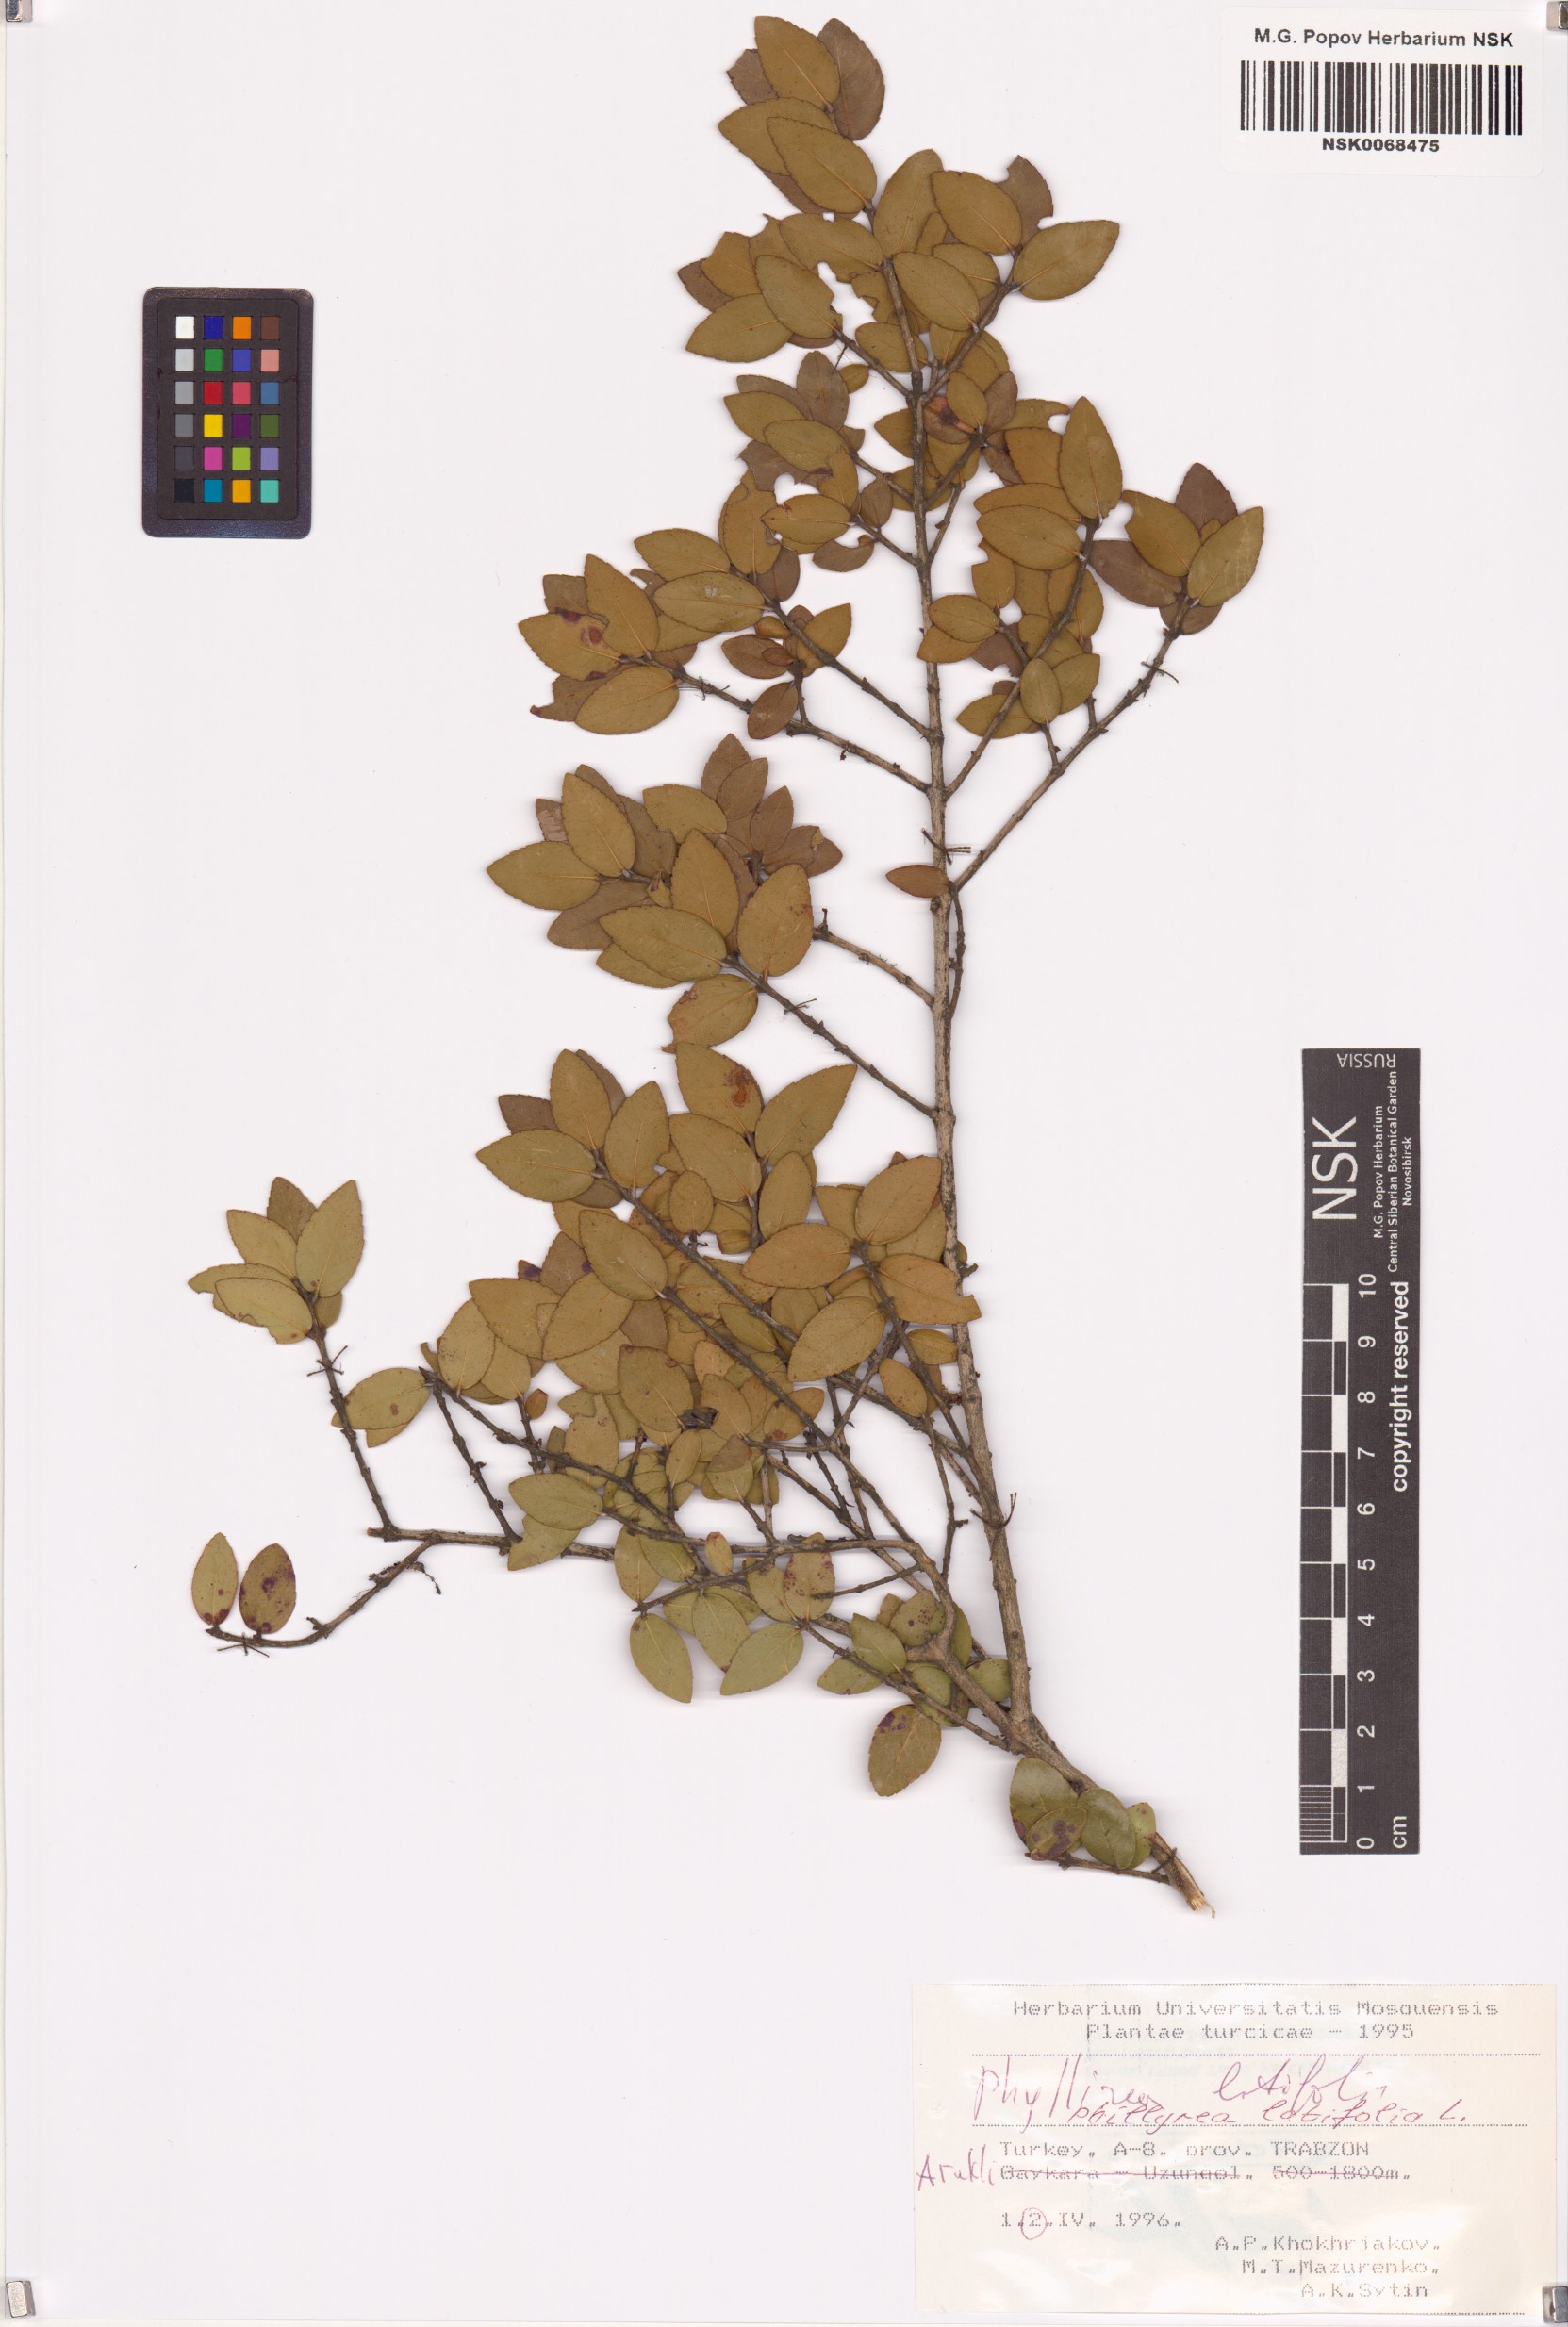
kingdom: Plantae
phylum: Tracheophyta
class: Magnoliopsida
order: Lamiales
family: Oleaceae
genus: Phillyrea
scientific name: Phillyrea latifolia
